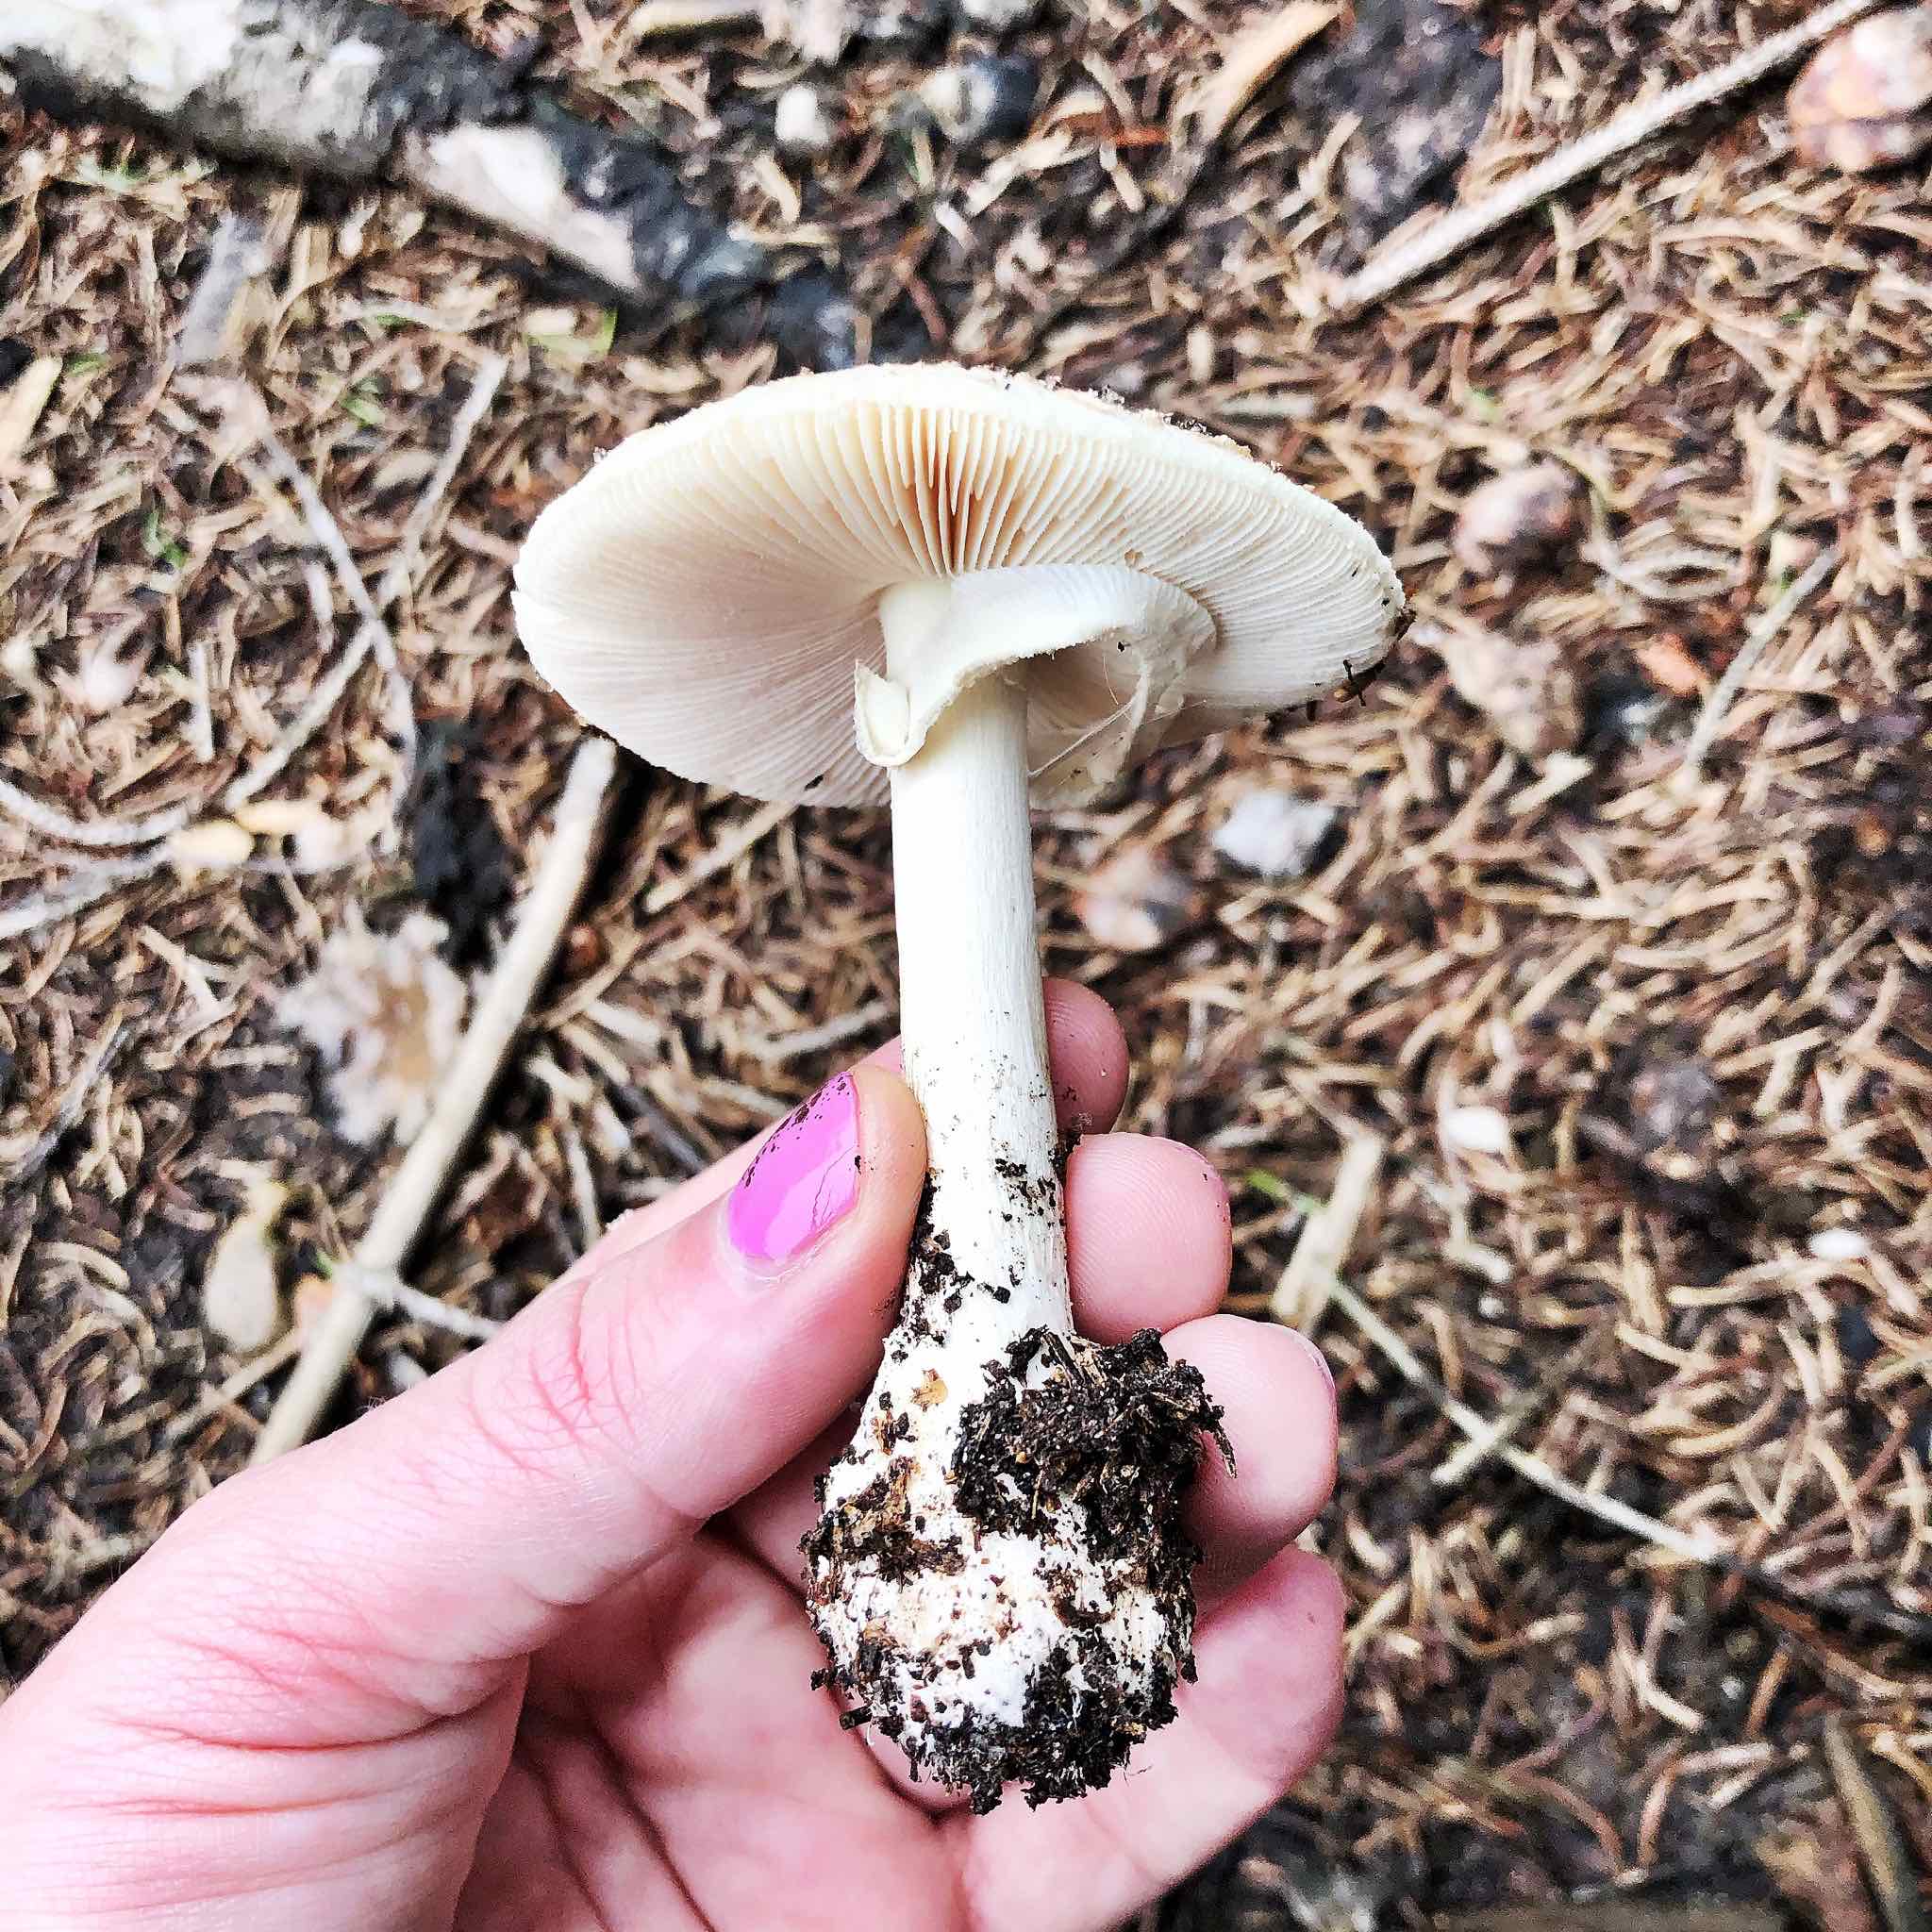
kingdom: Fungi
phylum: Basidiomycota
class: Agaricomycetes
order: Agaricales
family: Amanitaceae
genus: Amanita
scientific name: Amanita citrina
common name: kugleknoldet fluesvamp
